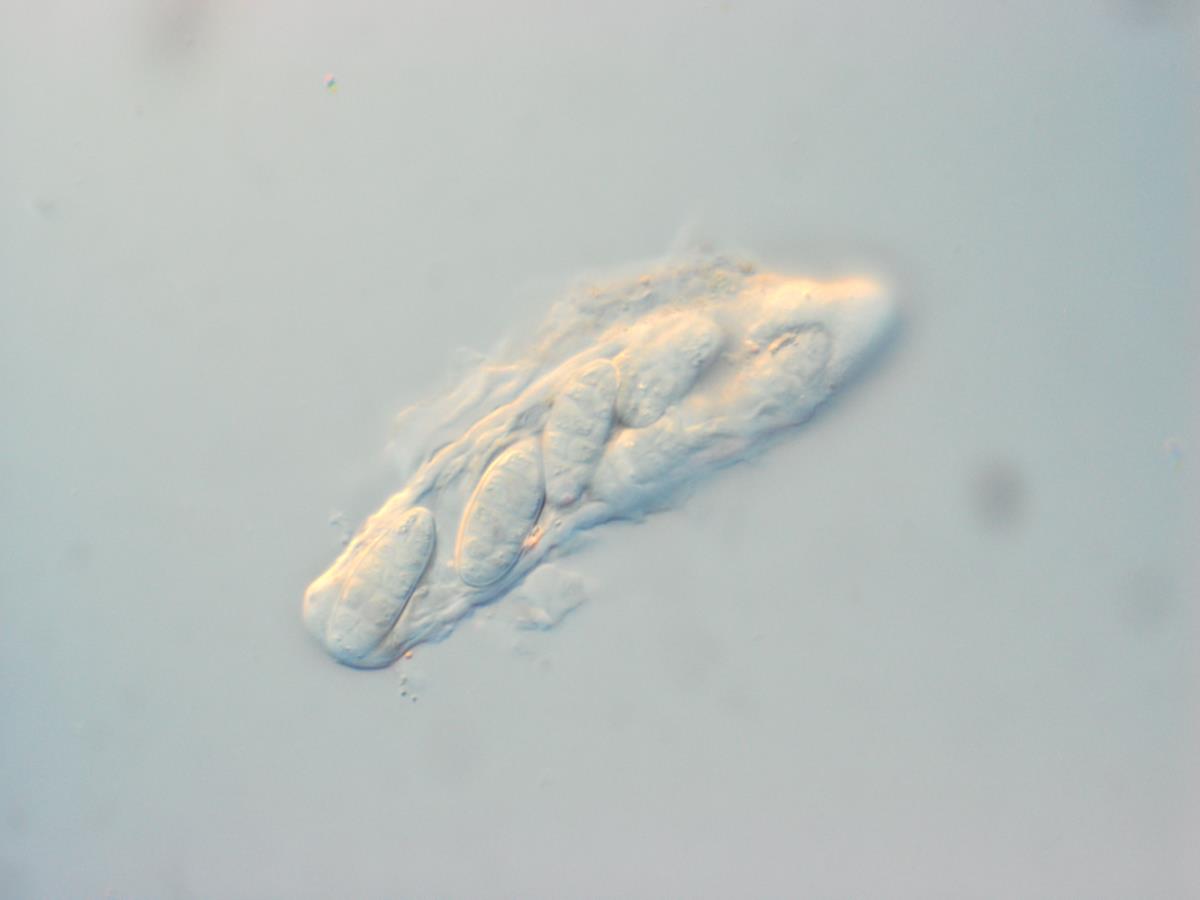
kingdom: Fungi
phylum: Ascomycota
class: Dothideomycetes
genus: Gloeodiscus
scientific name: Gloeodiscus nigrorufus
